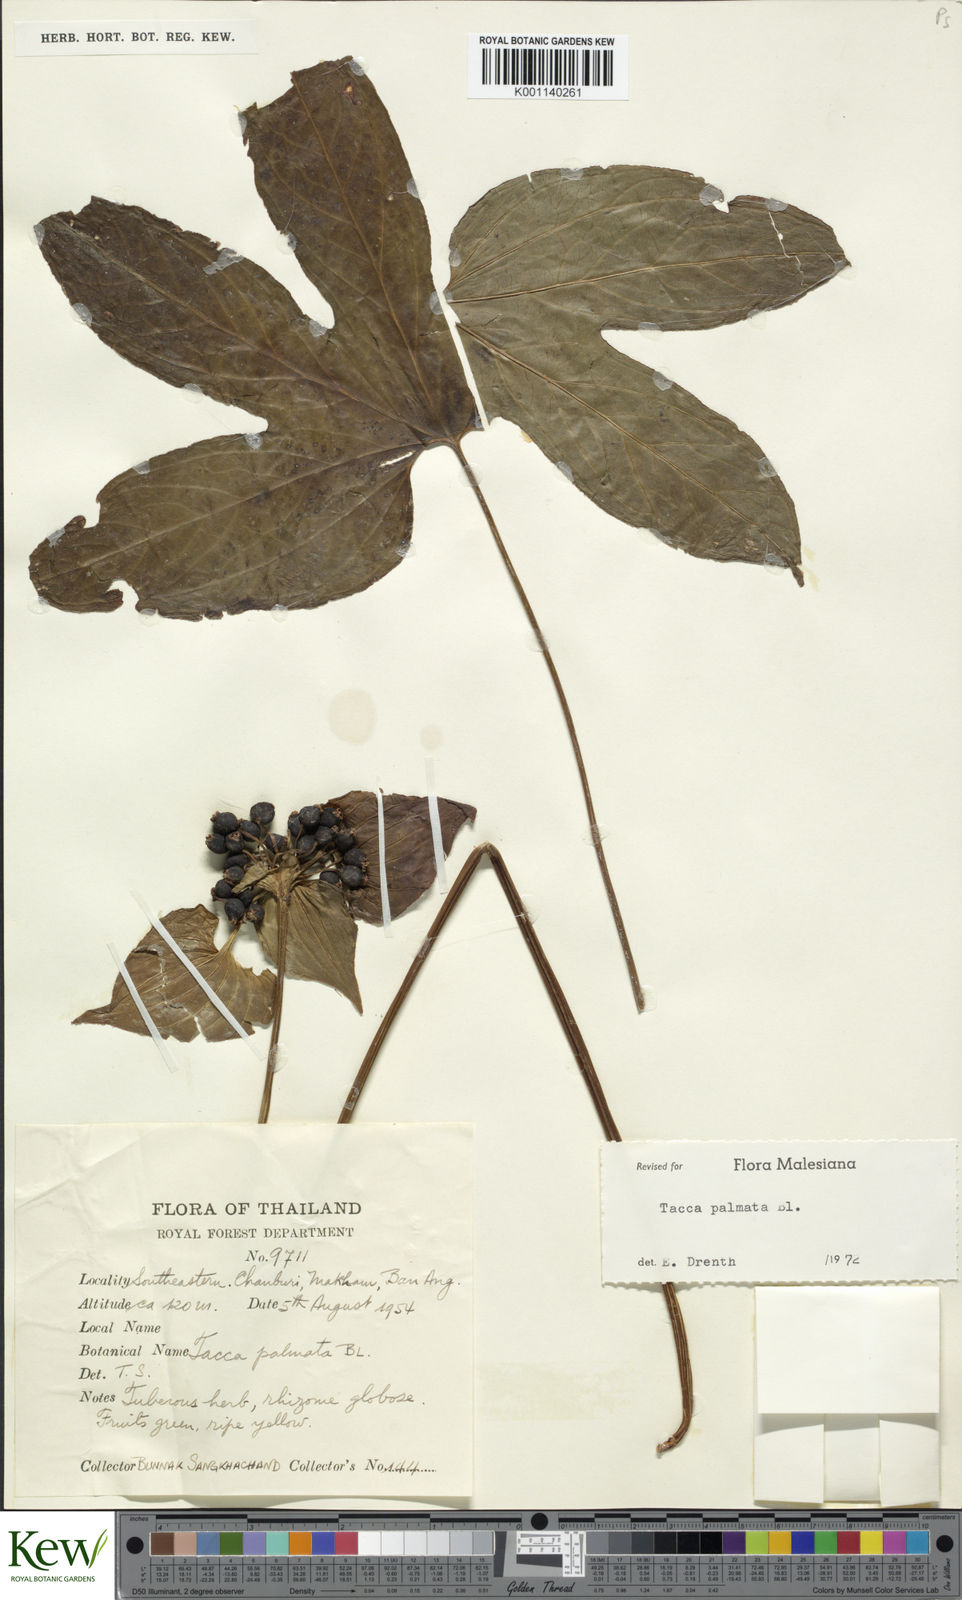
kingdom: Plantae
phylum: Tracheophyta
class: Liliopsida
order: Dioscoreales
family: Dioscoreaceae
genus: Tacca
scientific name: Tacca palmata
